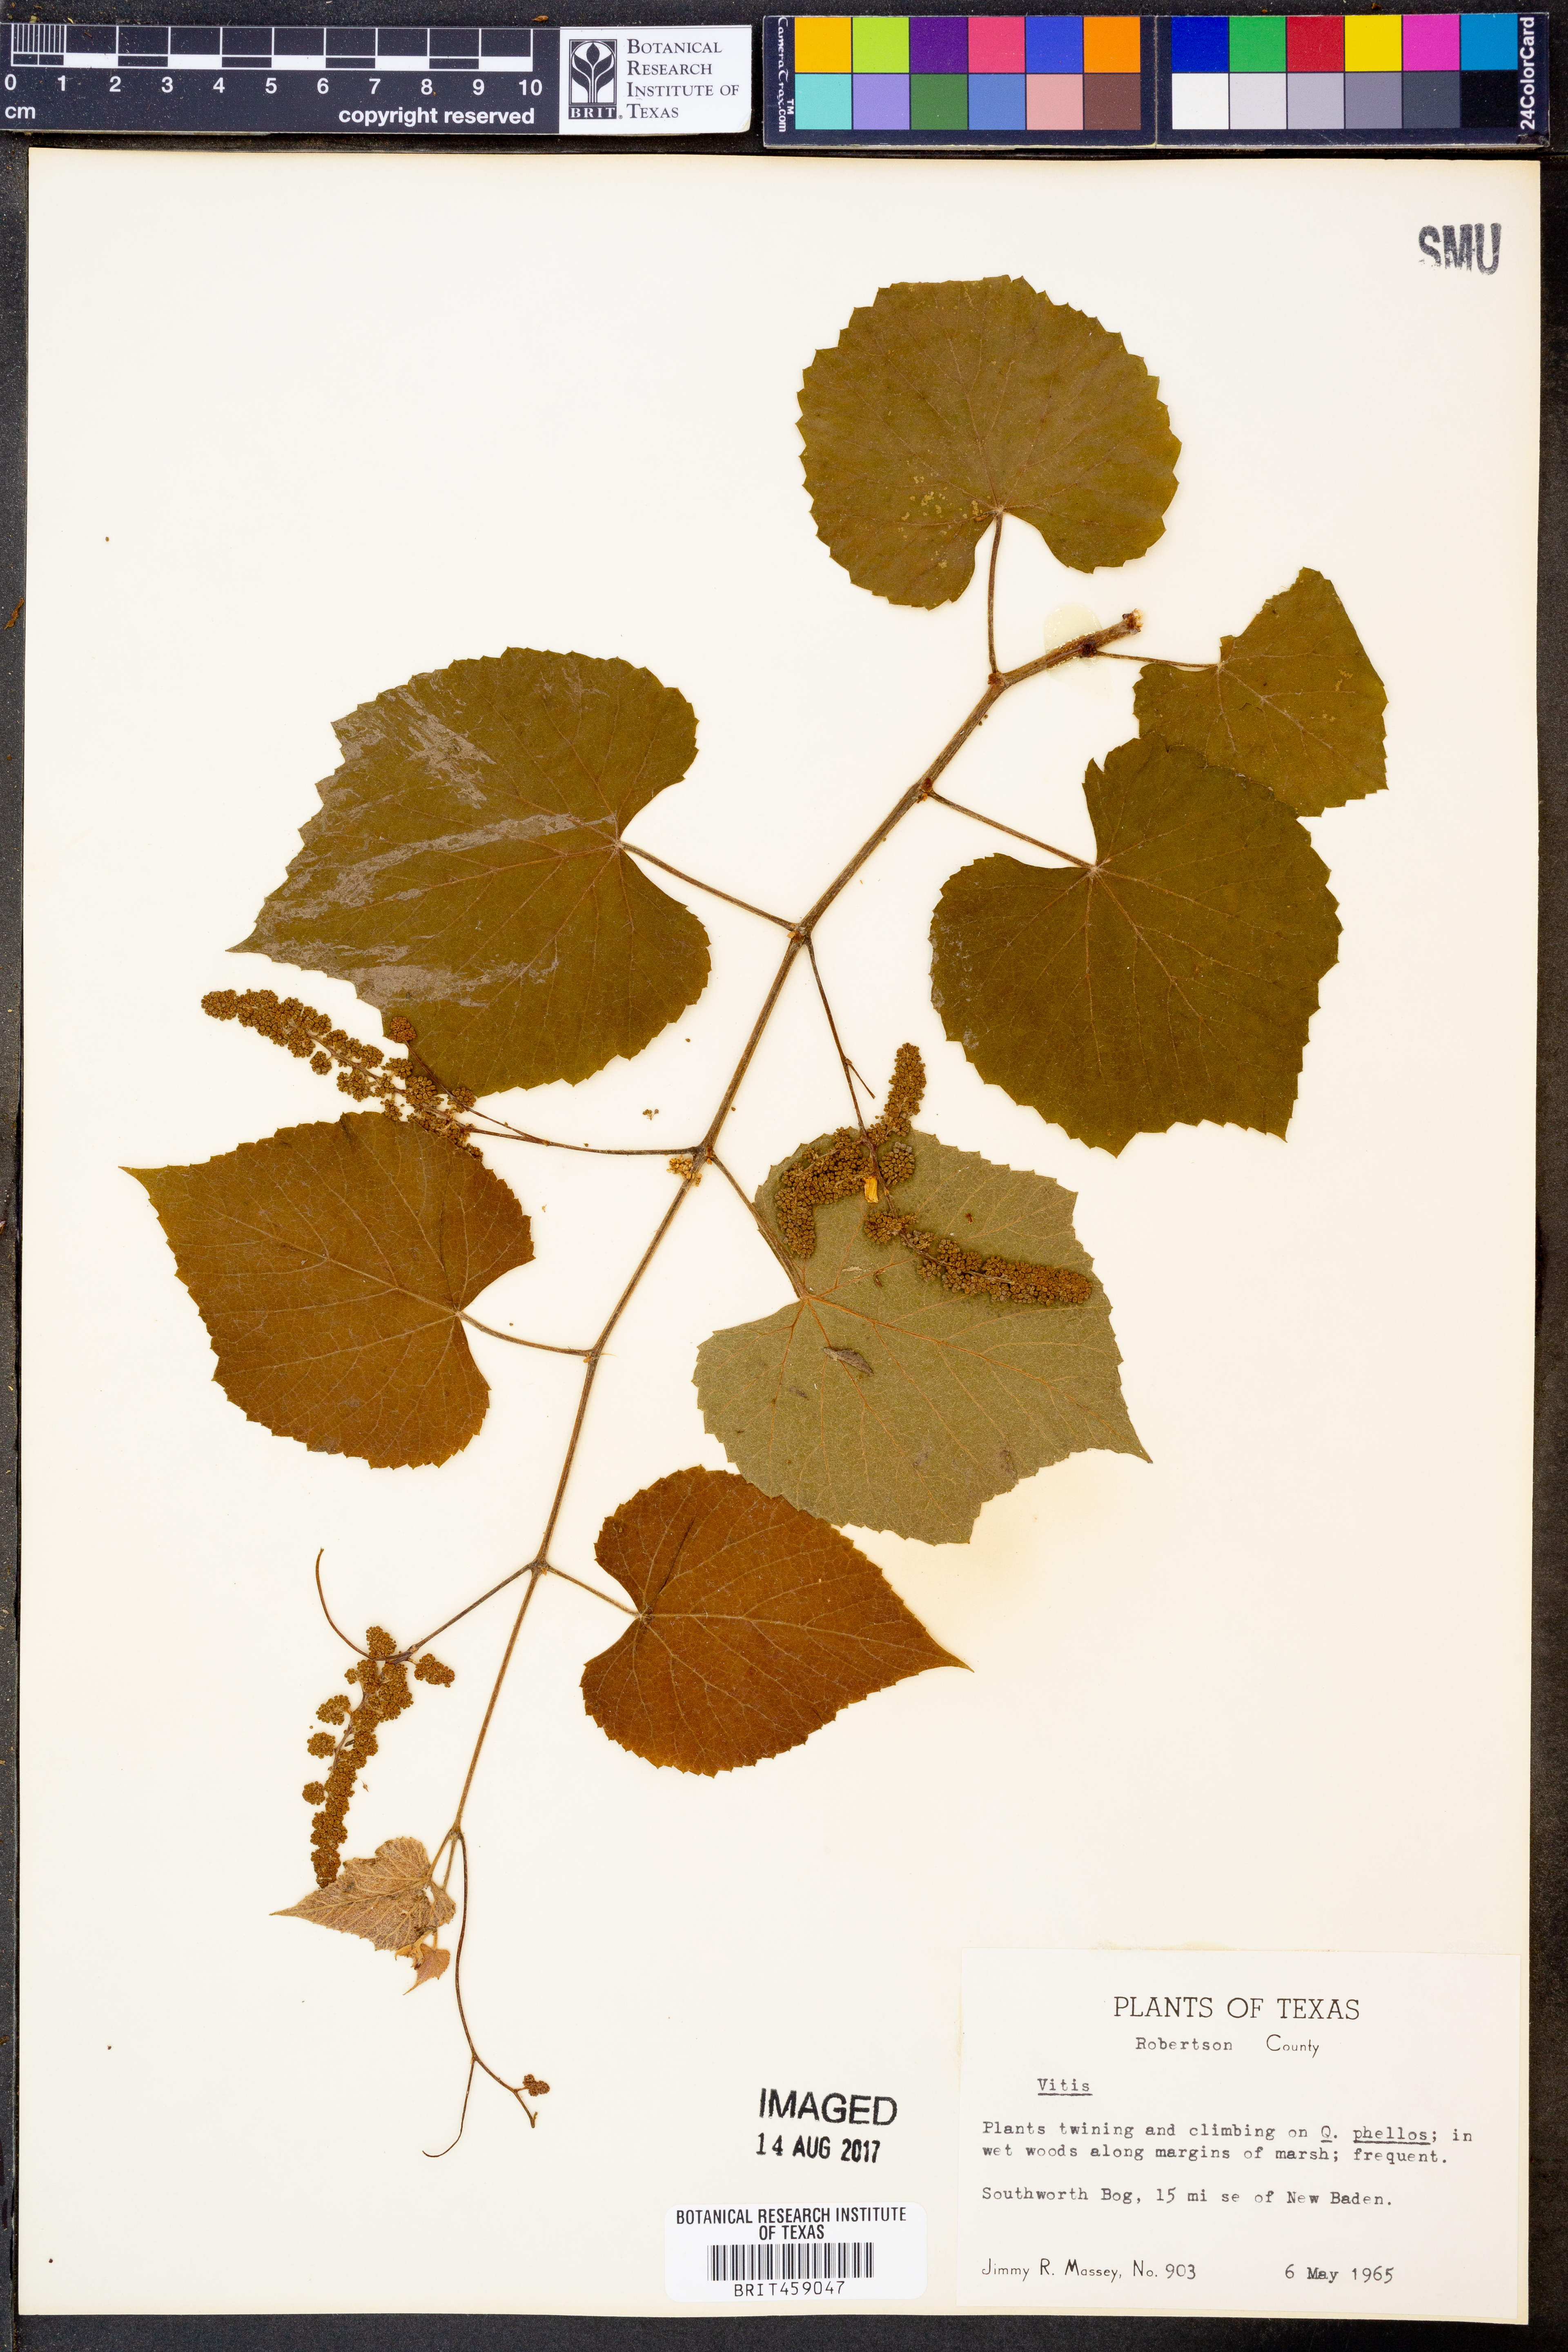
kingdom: Plantae
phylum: Tracheophyta
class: Magnoliopsida
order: Vitales
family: Vitaceae
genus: Vitis
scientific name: Vitis
